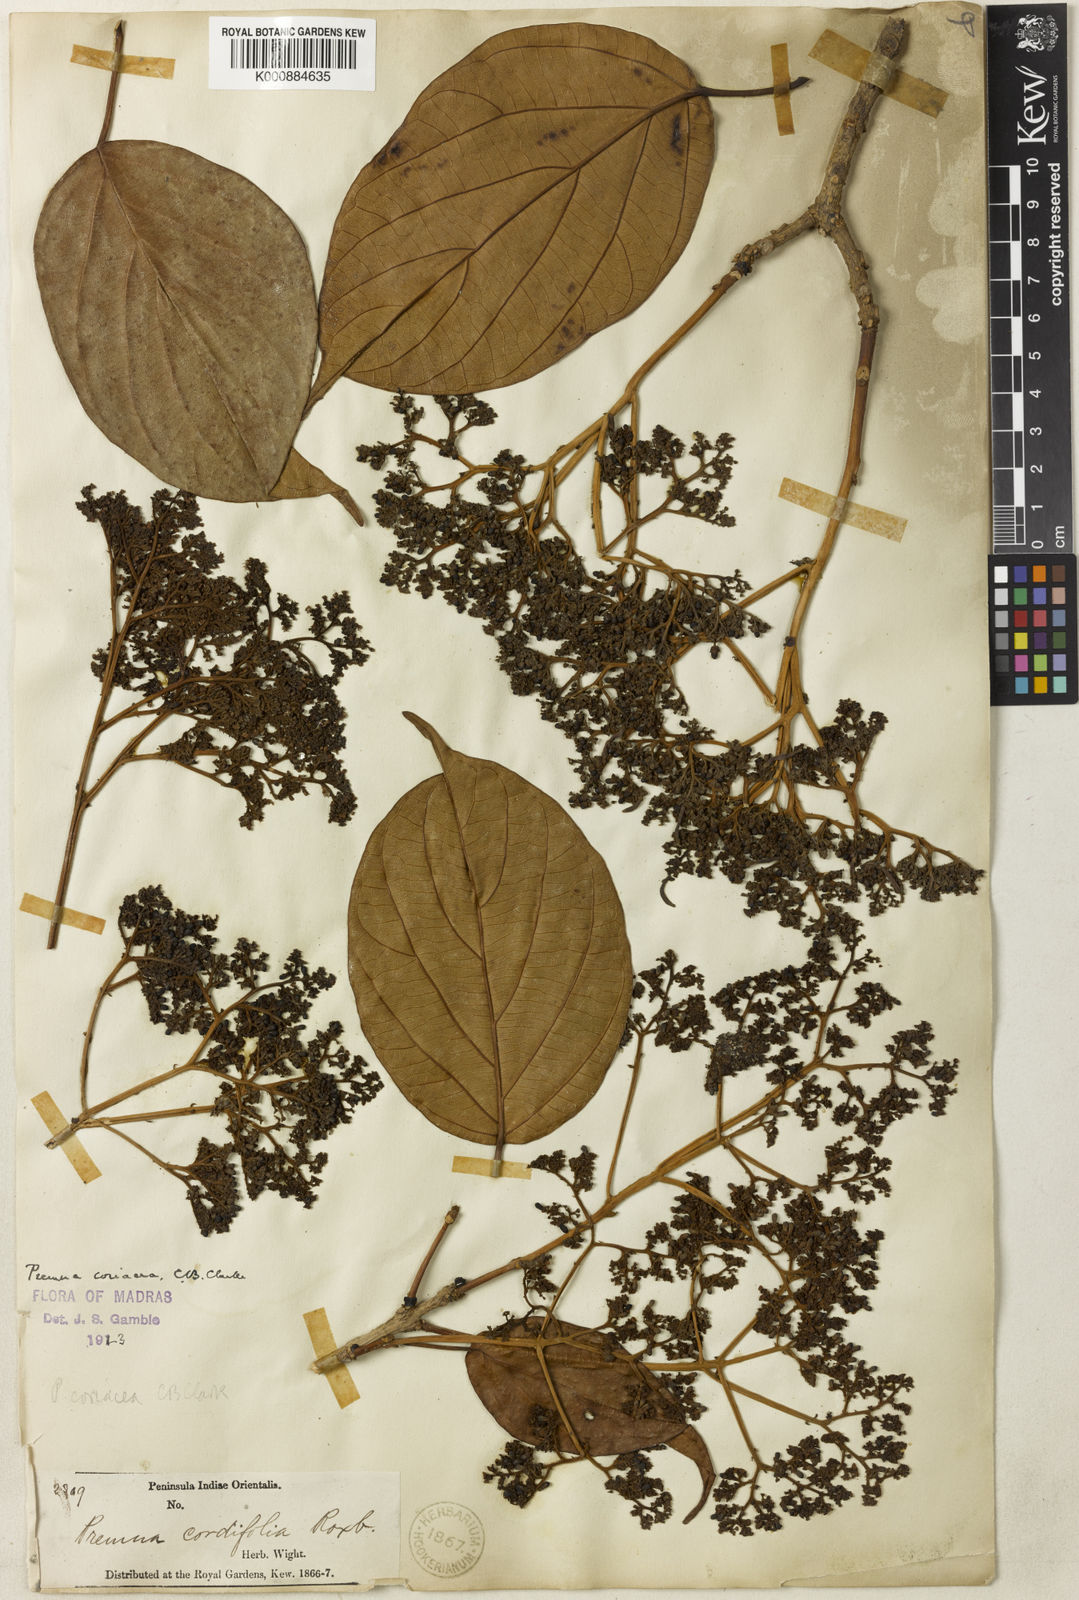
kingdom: Plantae
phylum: Tracheophyta
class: Magnoliopsida
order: Lamiales
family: Lamiaceae
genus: Premna
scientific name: Premna coriacea
